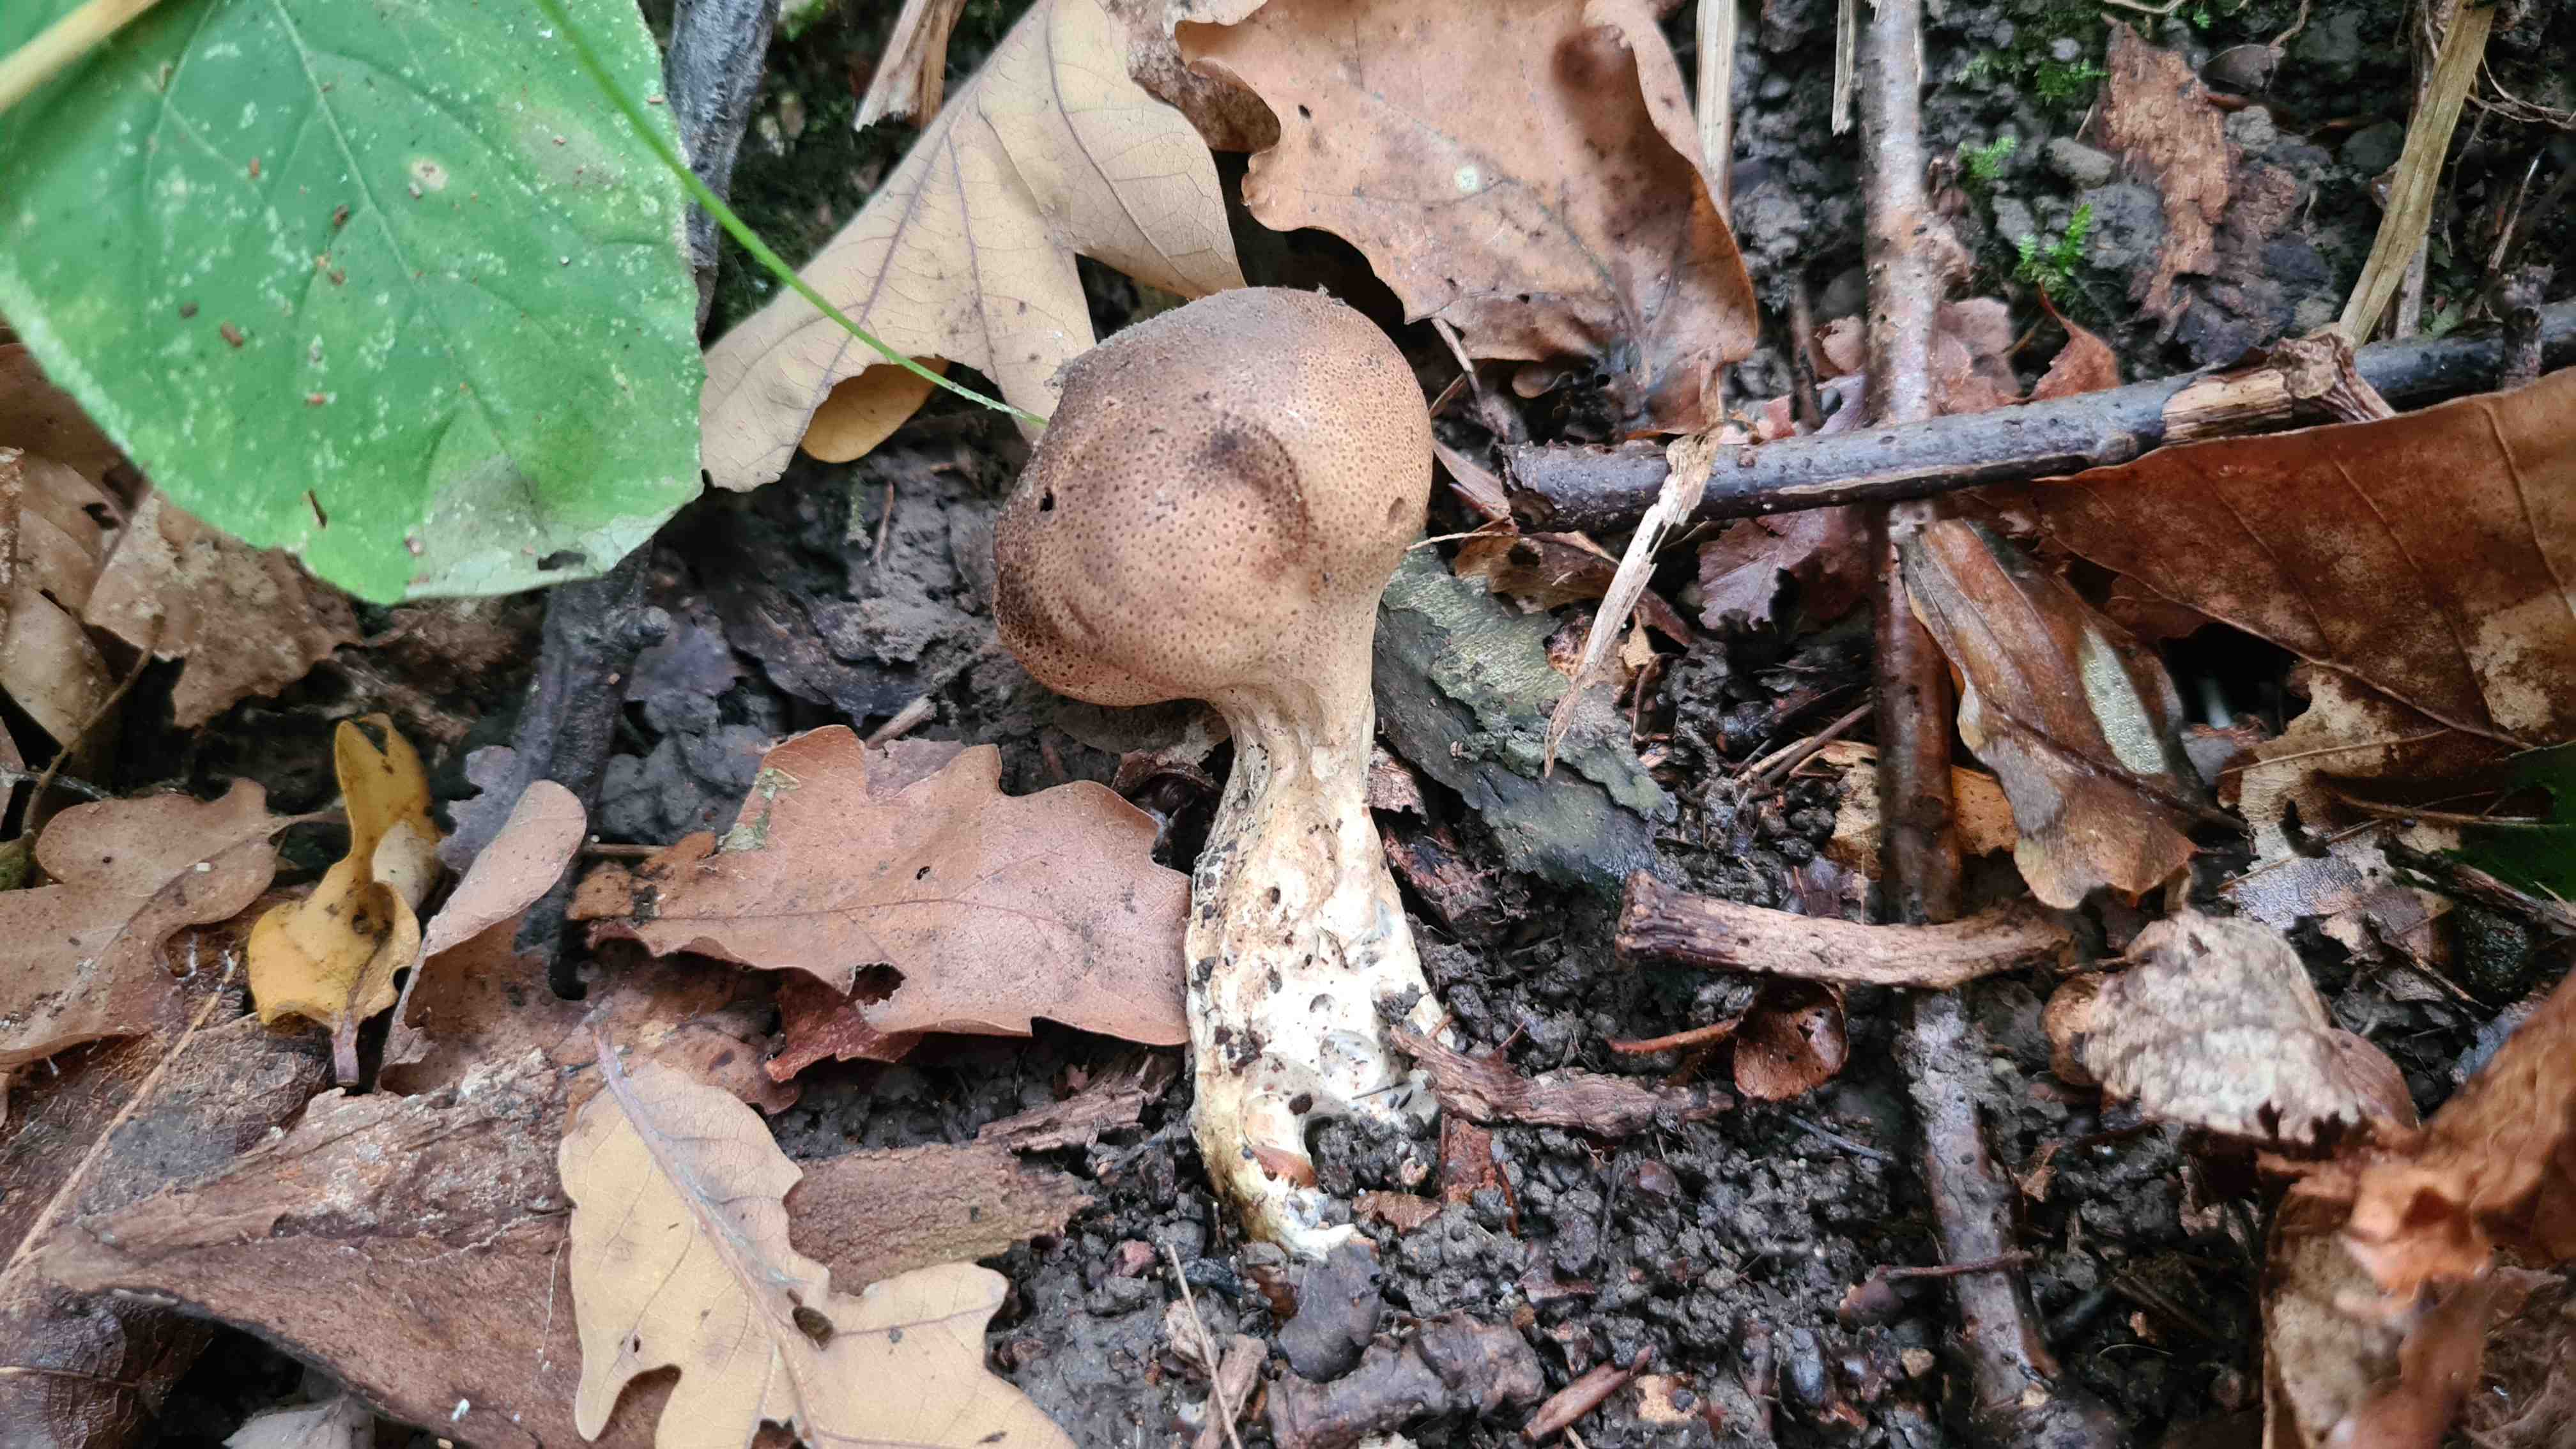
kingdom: Fungi
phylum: Basidiomycota
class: Agaricomycetes
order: Boletales
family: Sclerodermataceae
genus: Scleroderma
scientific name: Scleroderma verrucosum
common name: stilket bruskbold
